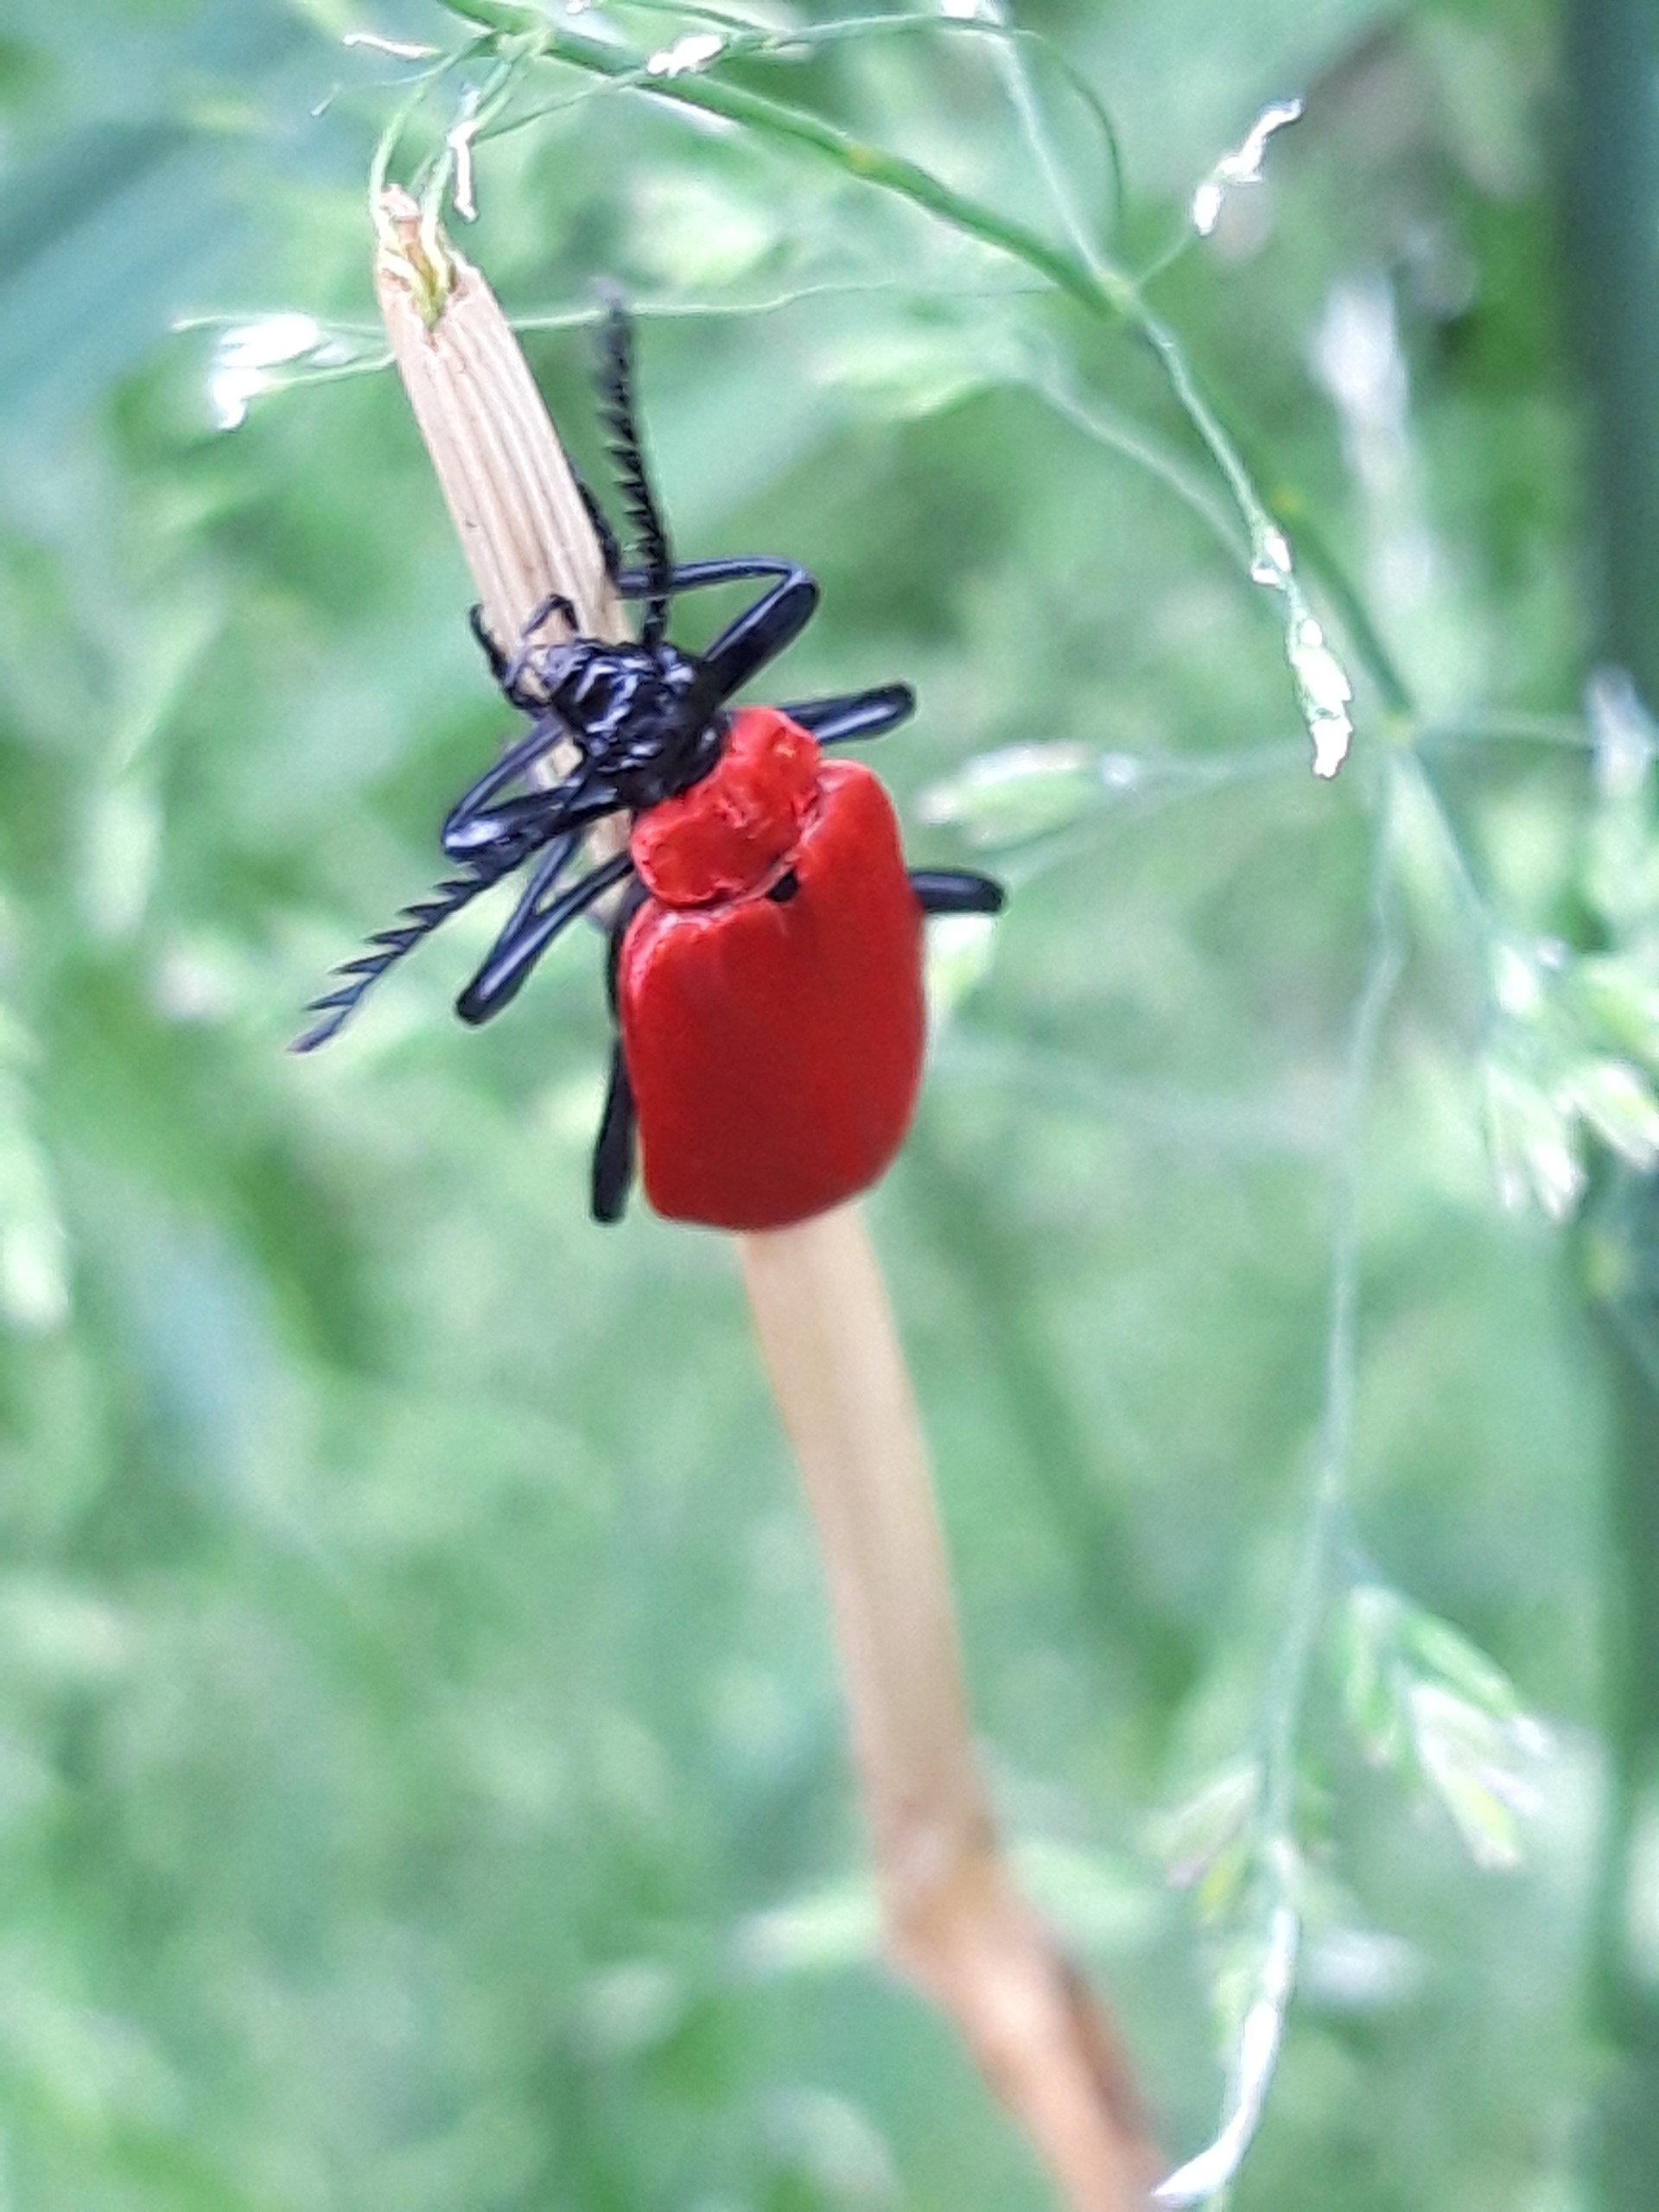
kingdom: Animalia
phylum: Arthropoda
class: Insecta
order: Coleoptera
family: Pyrochroidae
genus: Pyrochroa
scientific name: Pyrochroa coccinea
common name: Sorthovedet kardinalbille
